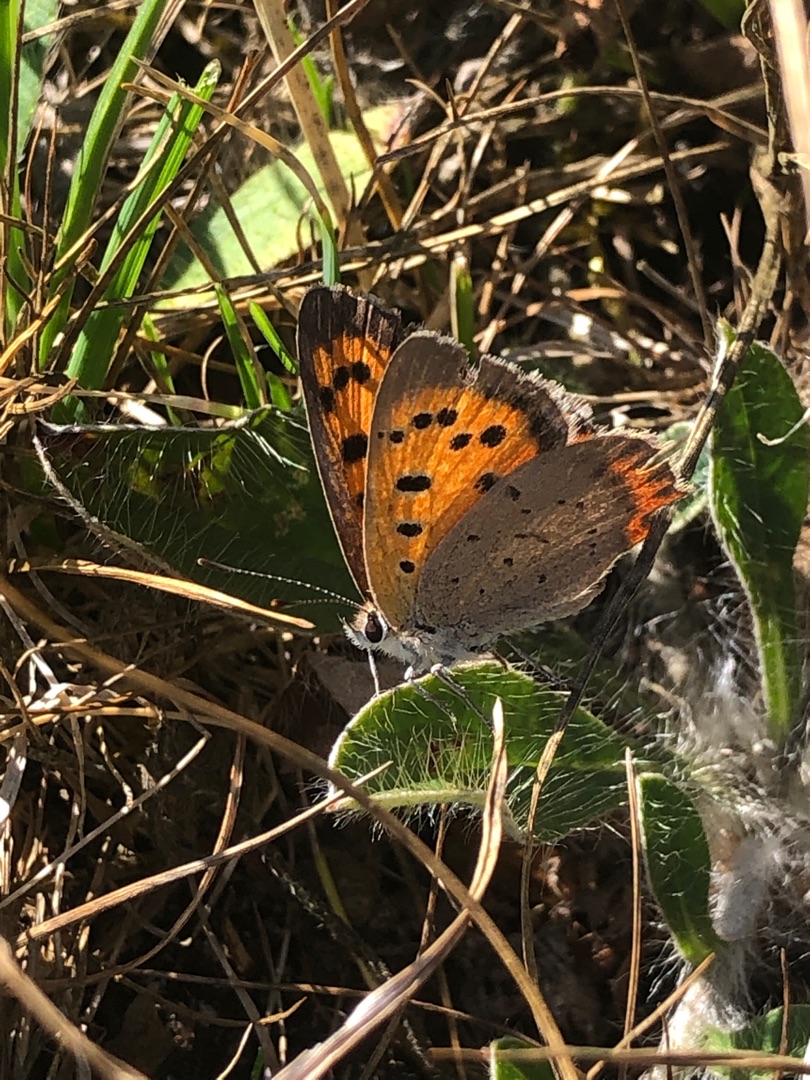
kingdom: Animalia
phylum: Arthropoda
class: Insecta
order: Lepidoptera
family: Lycaenidae
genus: Lycaena
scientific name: Lycaena phlaeas
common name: Lille ildfugl
